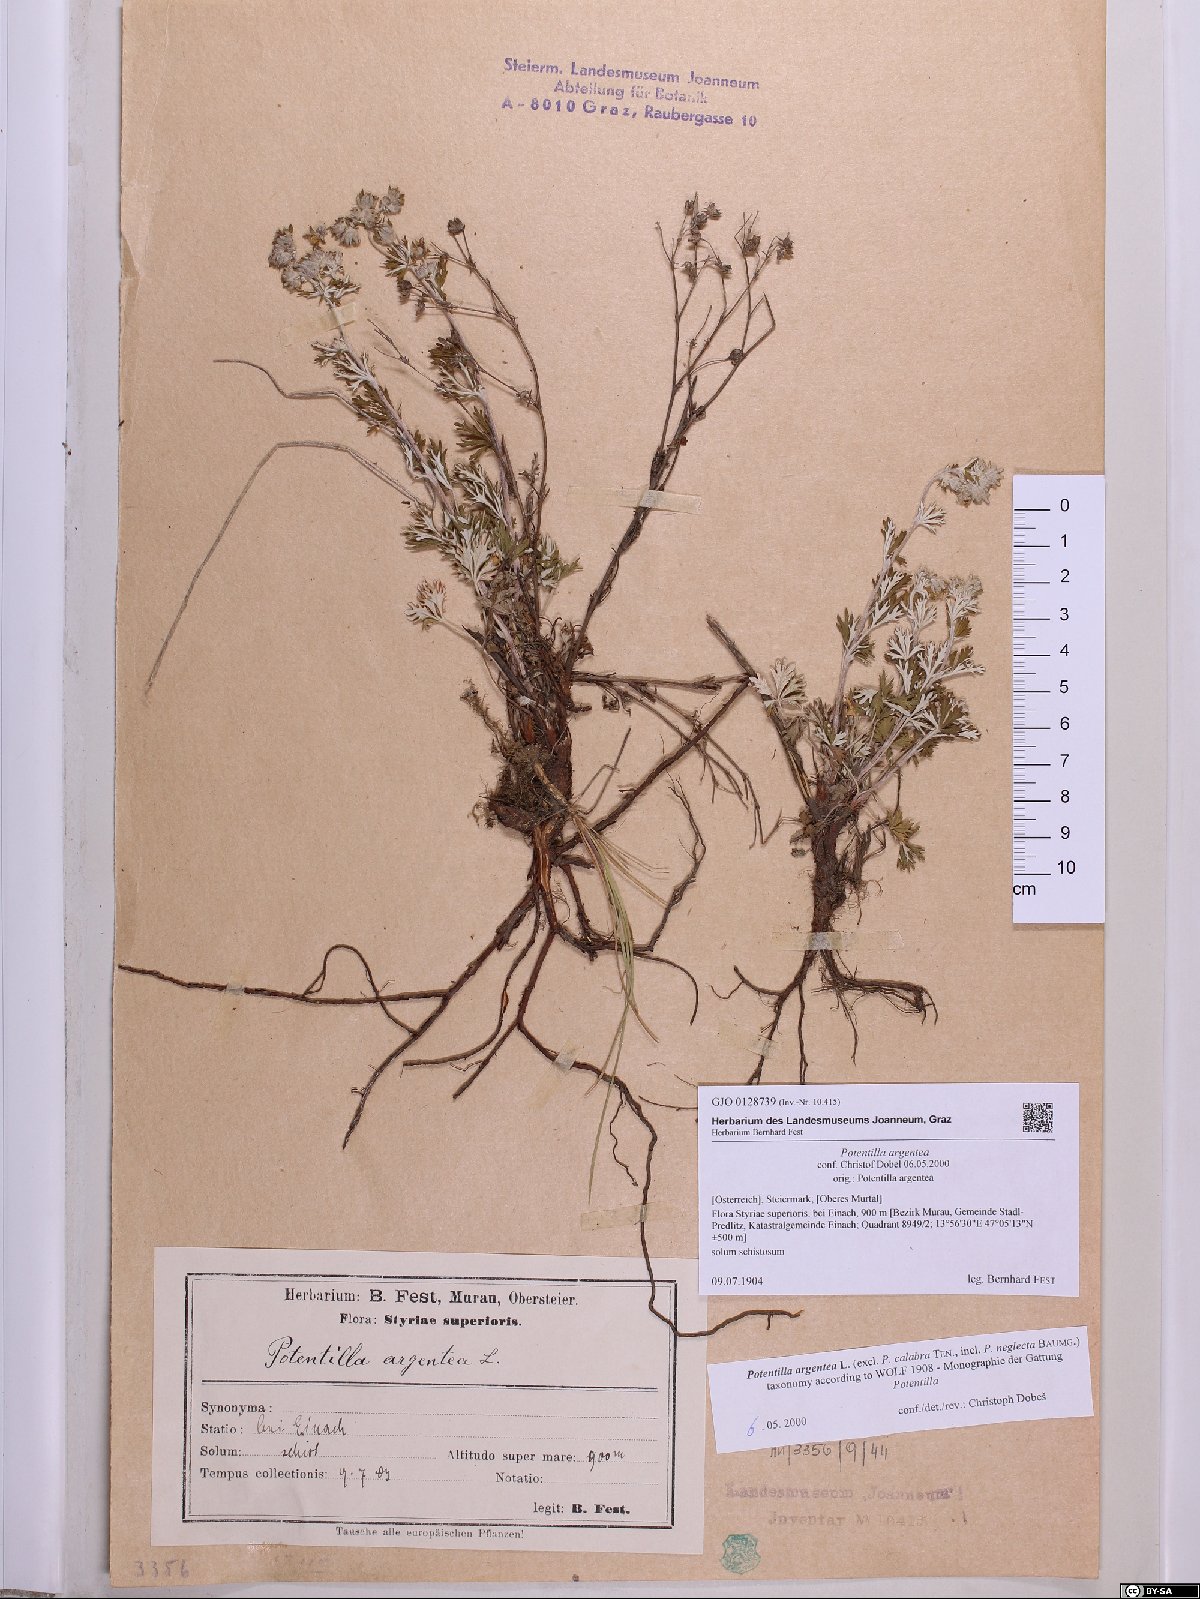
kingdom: Plantae
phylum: Tracheophyta
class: Magnoliopsida
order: Rosales
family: Rosaceae
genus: Potentilla
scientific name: Potentilla argentea
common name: Hoary cinquefoil
